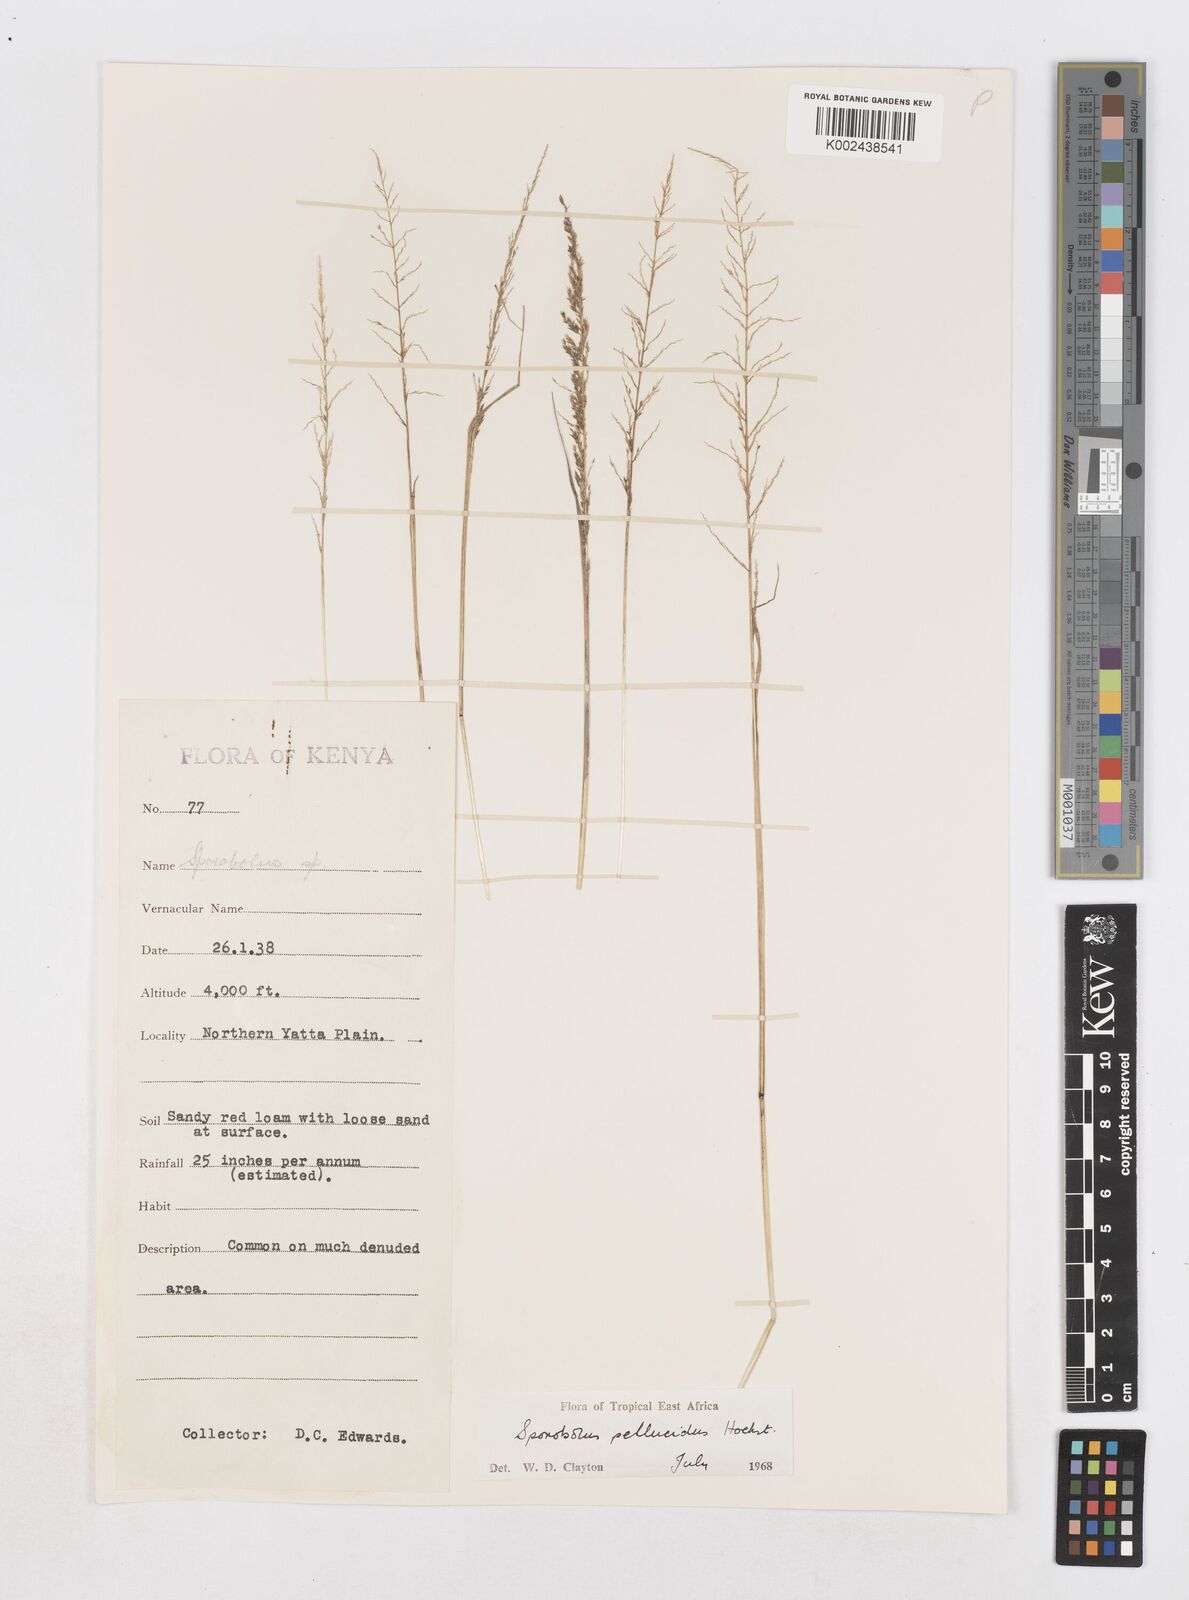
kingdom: Plantae
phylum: Tracheophyta
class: Liliopsida
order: Poales
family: Poaceae
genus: Sporobolus
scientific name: Sporobolus pellucidus
